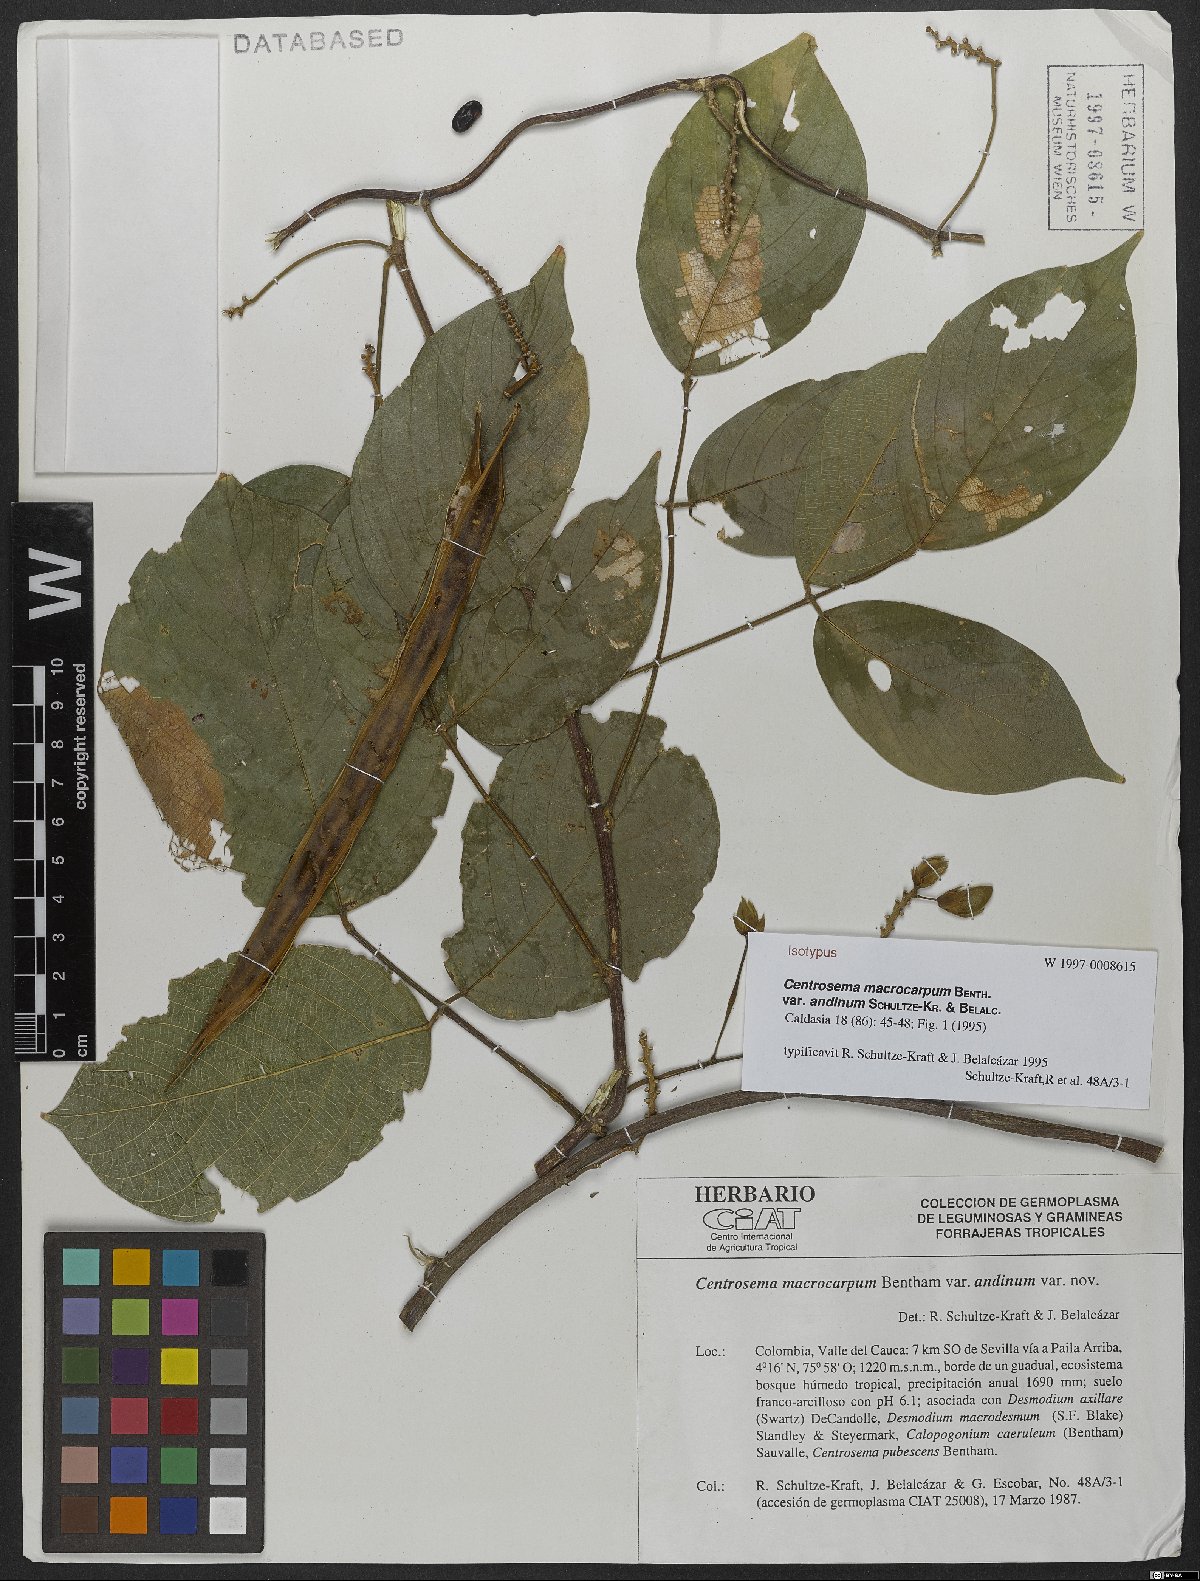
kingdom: Plantae
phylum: Tracheophyta
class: Magnoliopsida
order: Fabales
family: Fabaceae
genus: Centrosema
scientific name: Centrosema macrocarpum
